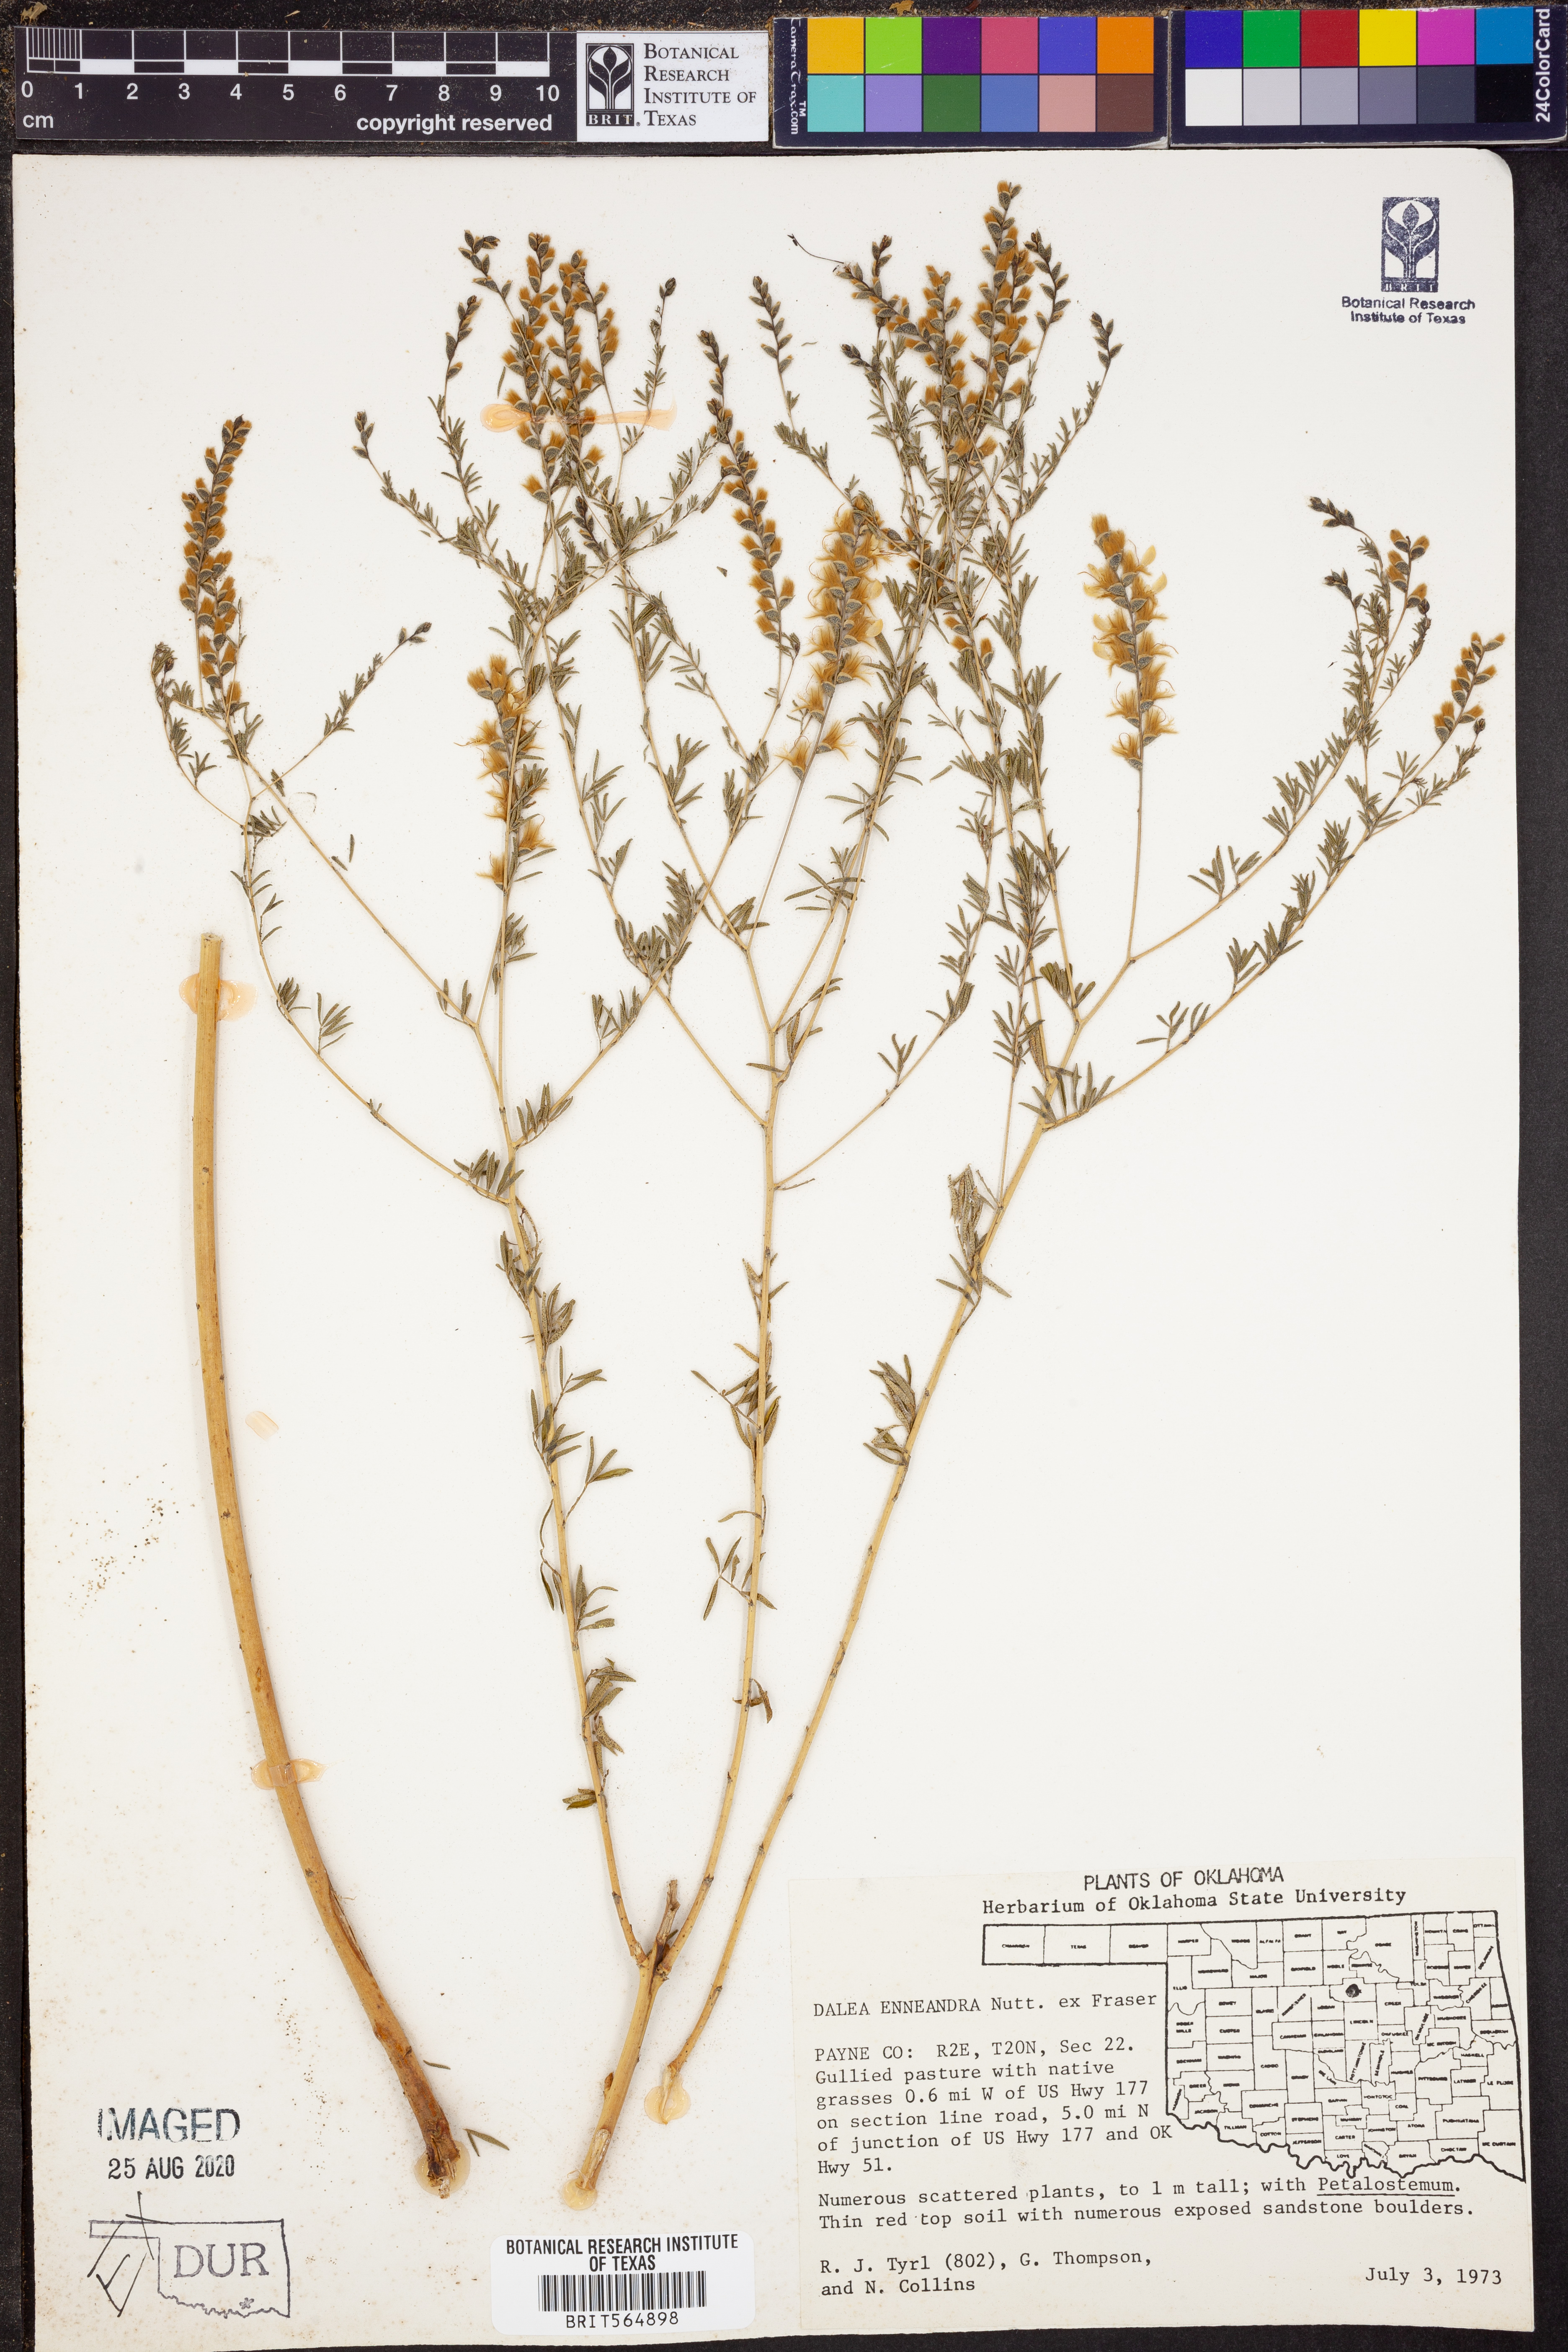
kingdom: Plantae
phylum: Tracheophyta
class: Magnoliopsida
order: Fabales
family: Fabaceae
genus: Dalea
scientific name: Dalea enneandra
